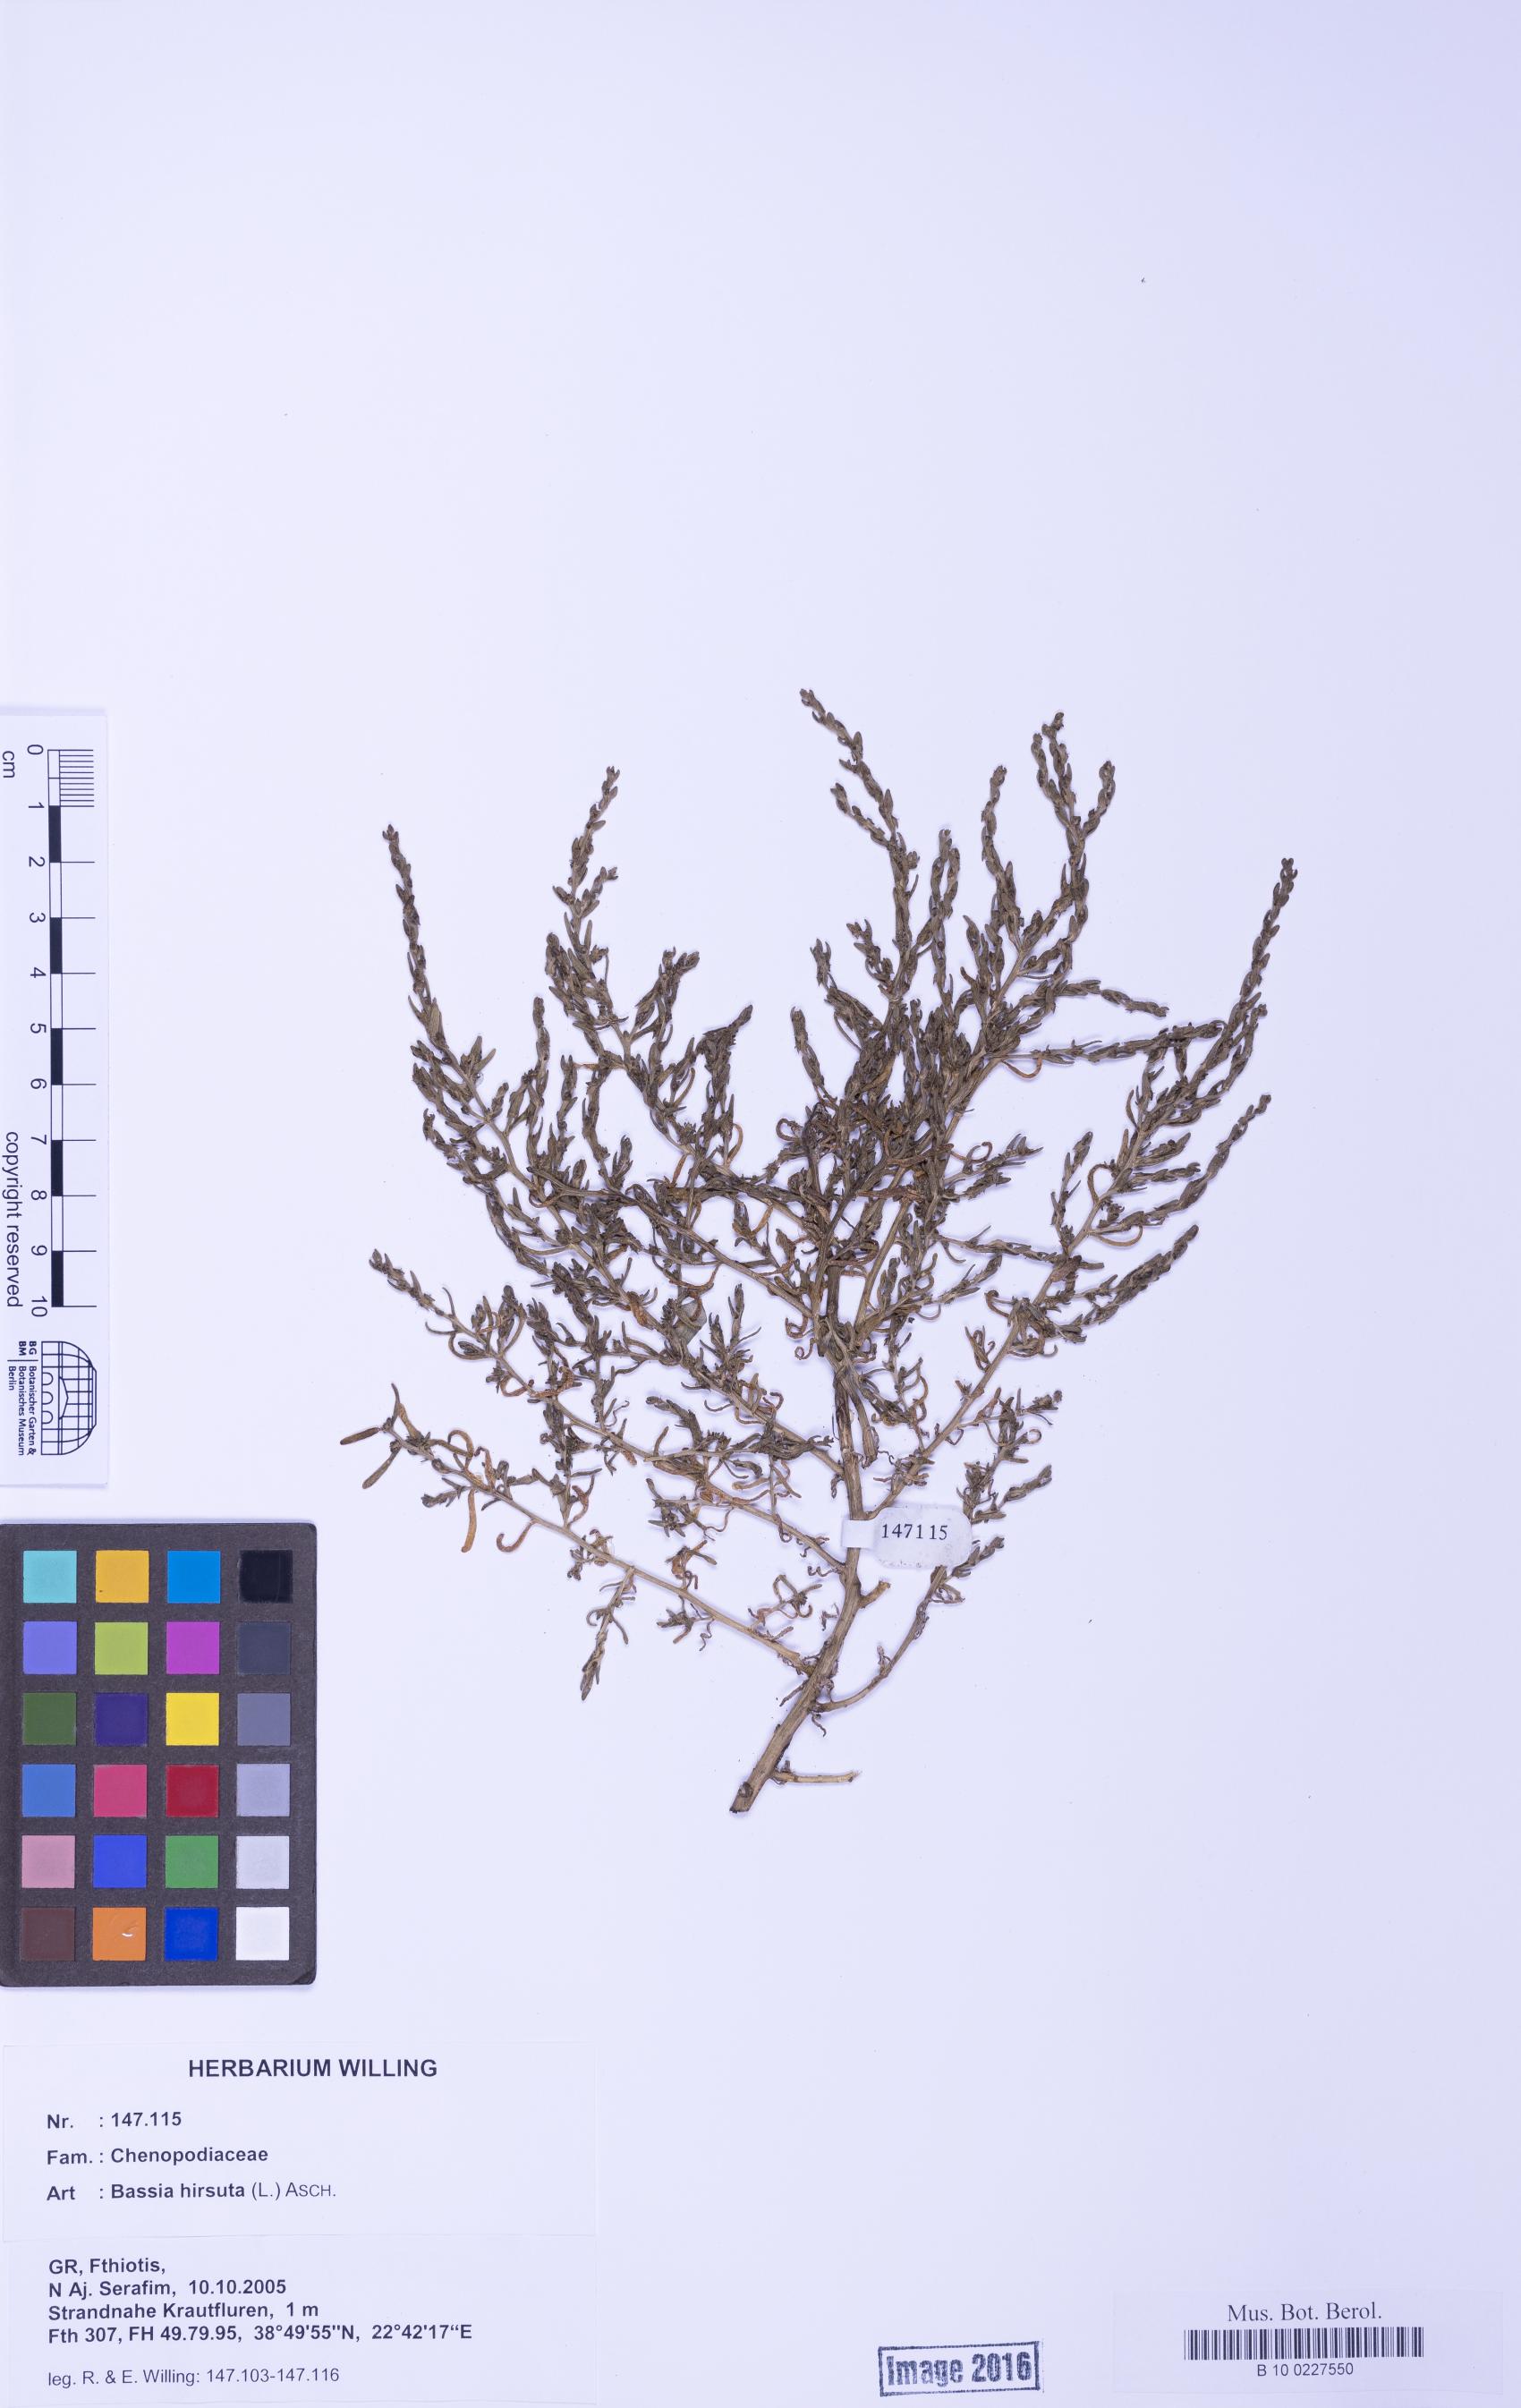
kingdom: Plantae
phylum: Tracheophyta
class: Magnoliopsida
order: Caryophyllales
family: Amaranthaceae
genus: Spirobassia
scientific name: Spirobassia hirsuta
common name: Hairy smotherweed
